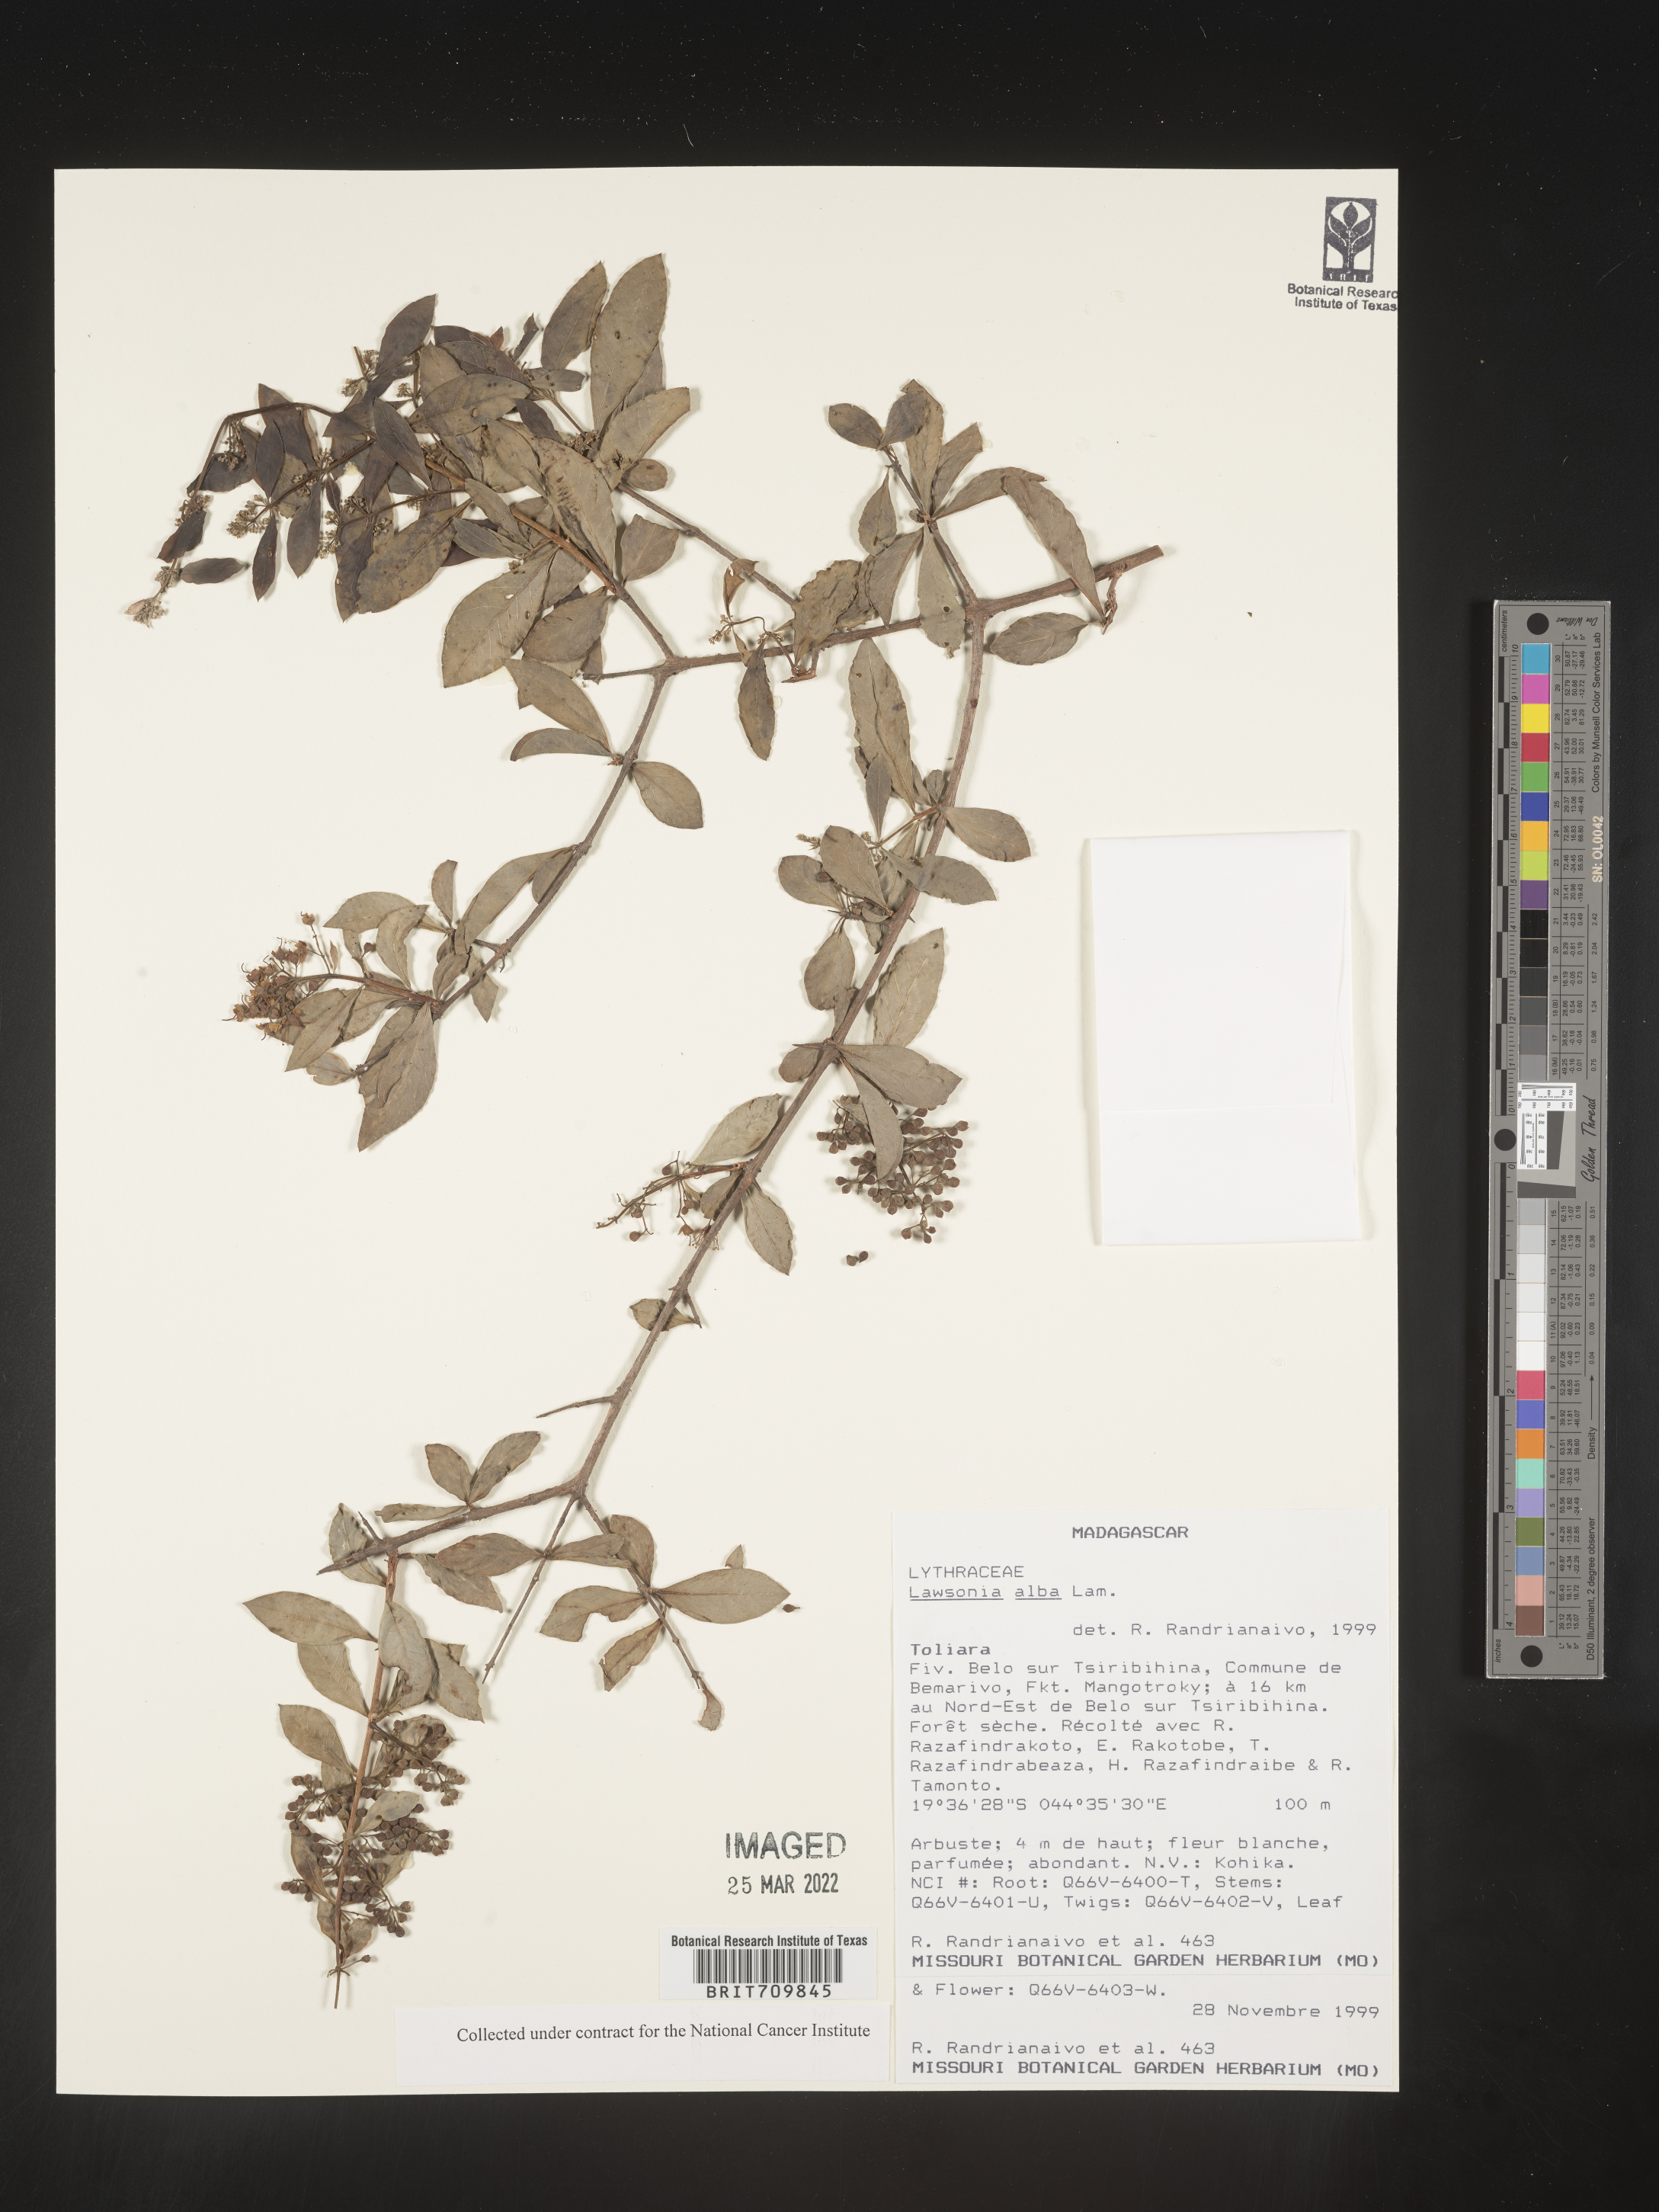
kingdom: Plantae
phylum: Tracheophyta
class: Magnoliopsida
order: Myrtales
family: Lythraceae
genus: Lawsonia
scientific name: Lawsonia
